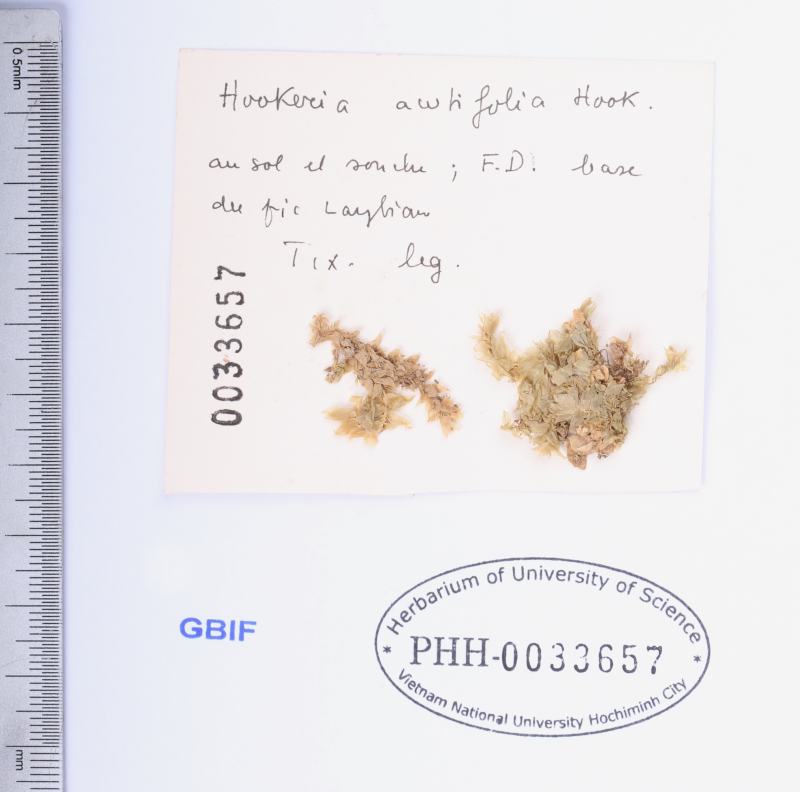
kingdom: Plantae
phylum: Bryophyta
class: Bryopsida
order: Hookeriales
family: Hookeriaceae
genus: Hookeria
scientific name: Hookeria acutifolia
